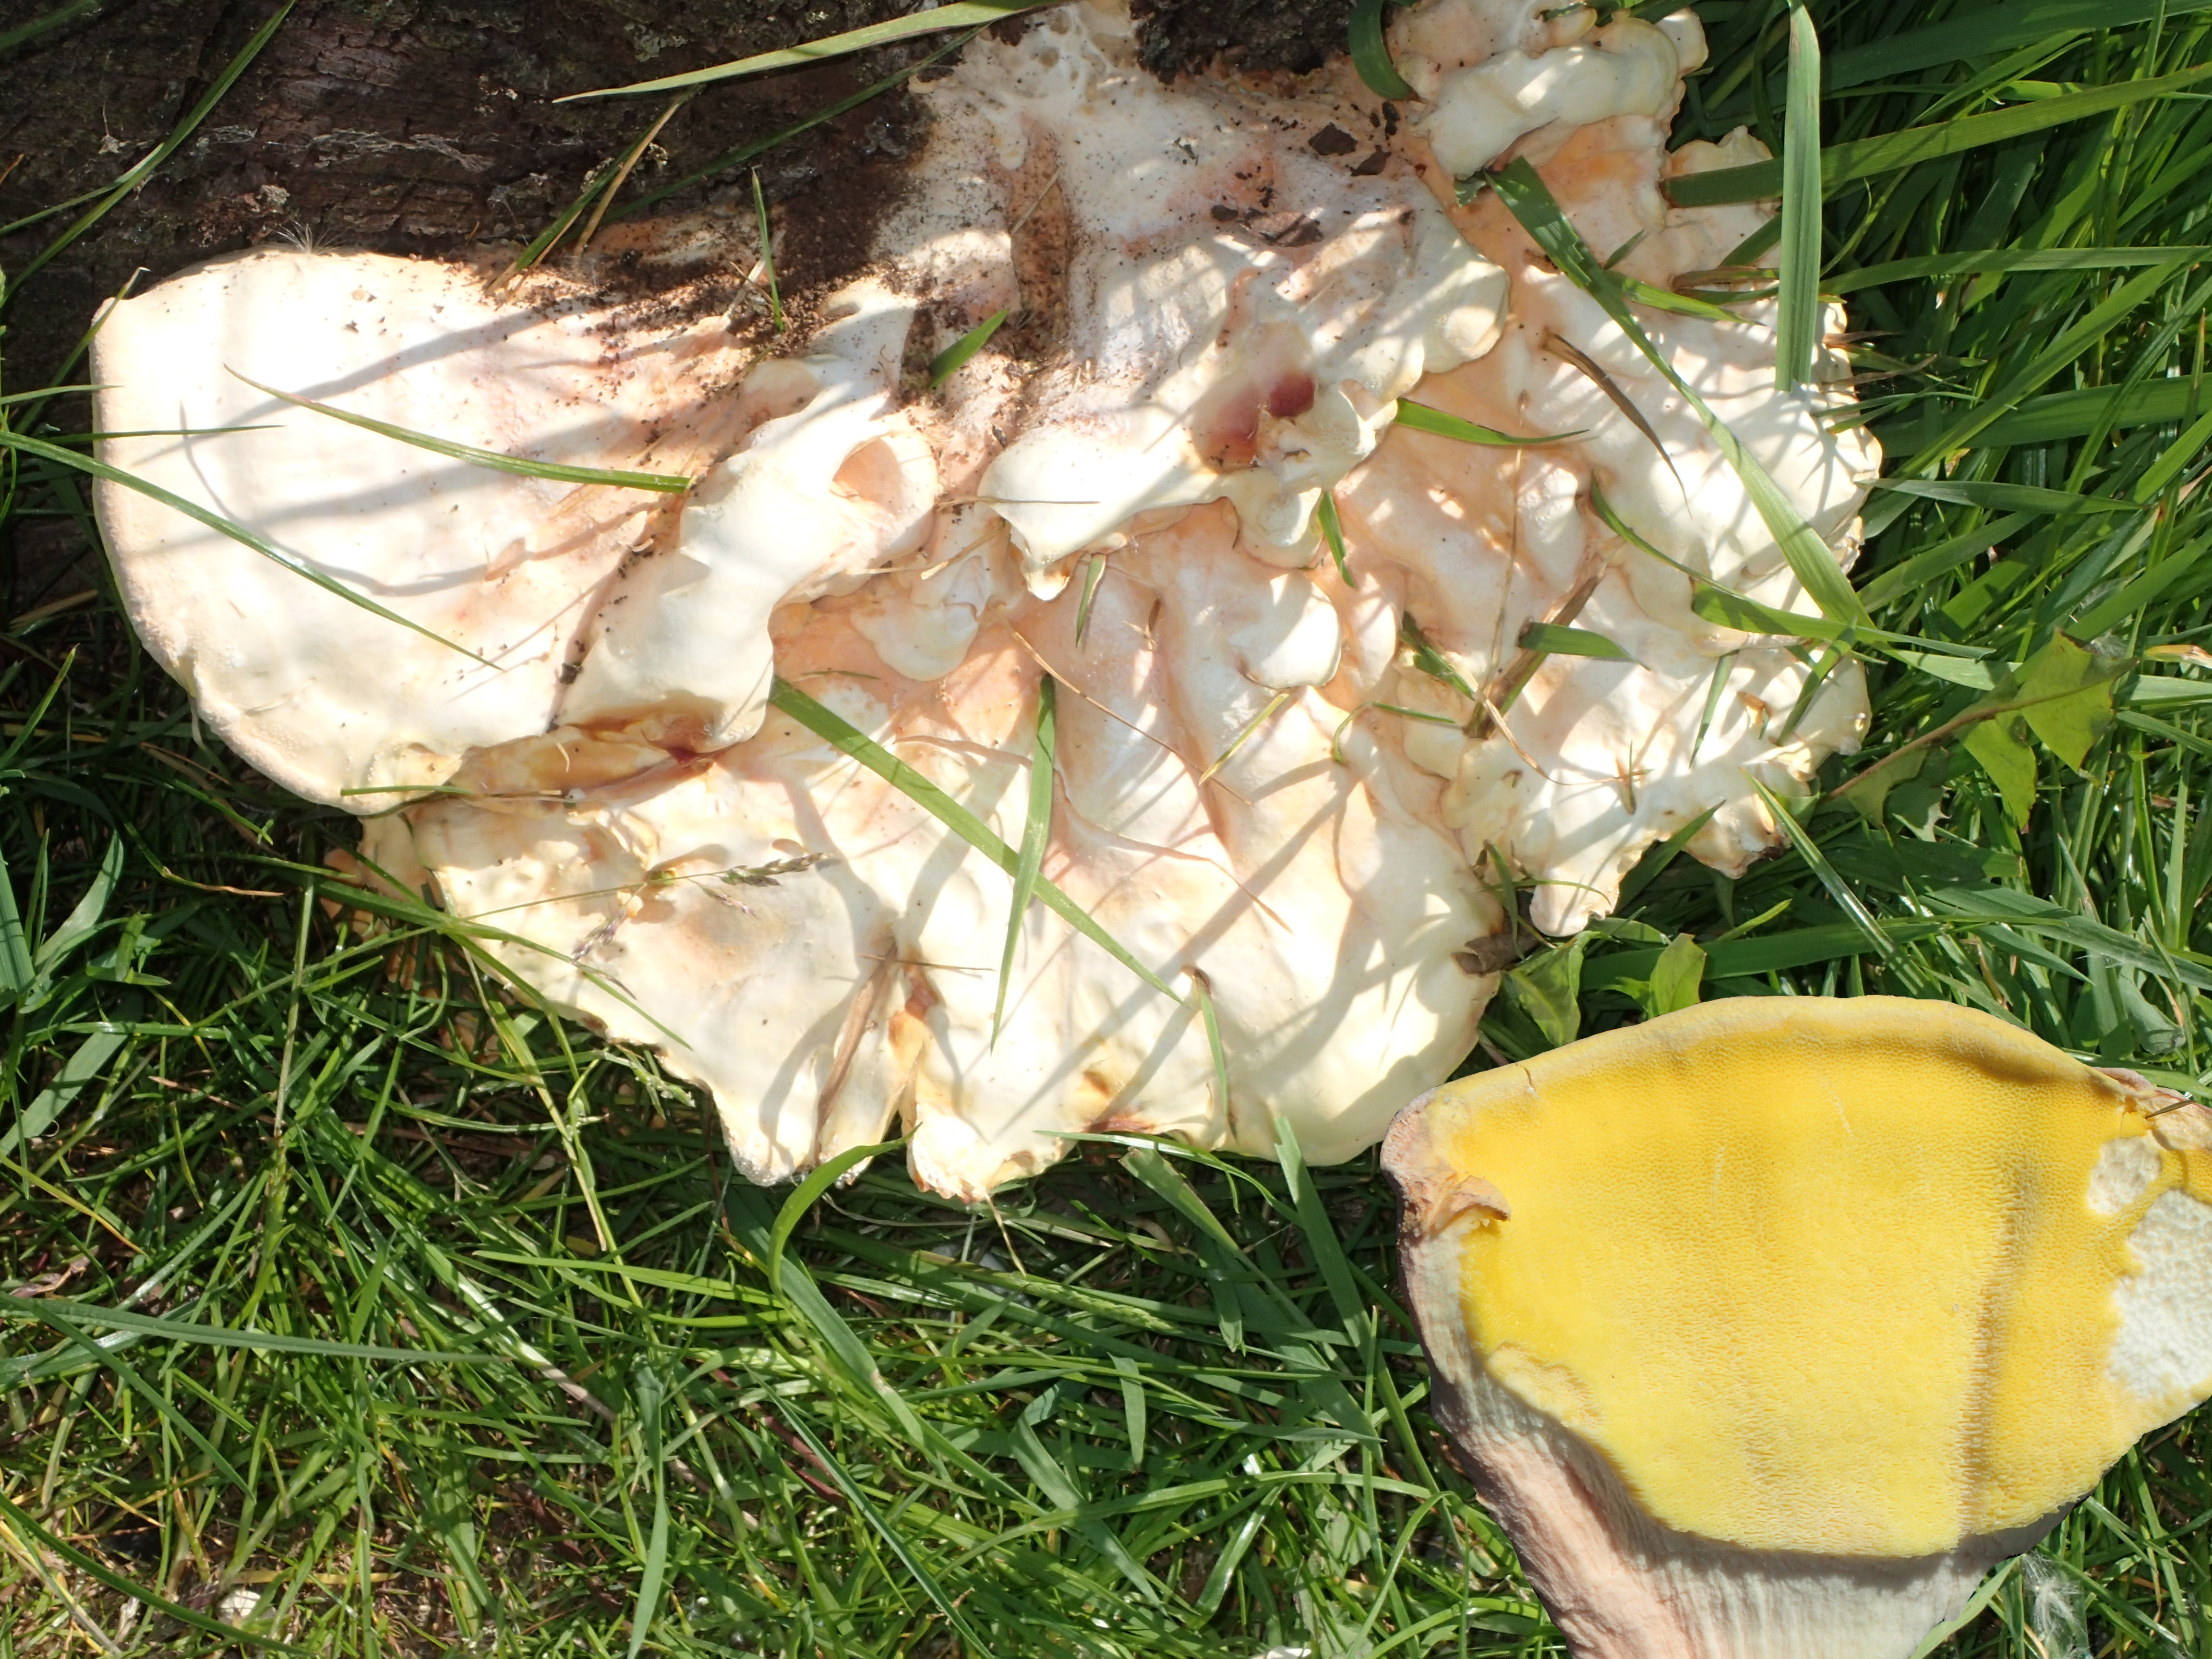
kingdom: Fungi
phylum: Basidiomycota
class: Agaricomycetes
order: Polyporales
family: Laetiporaceae
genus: Laetiporus
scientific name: Laetiporus sulphureus
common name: svovlporesvamp
